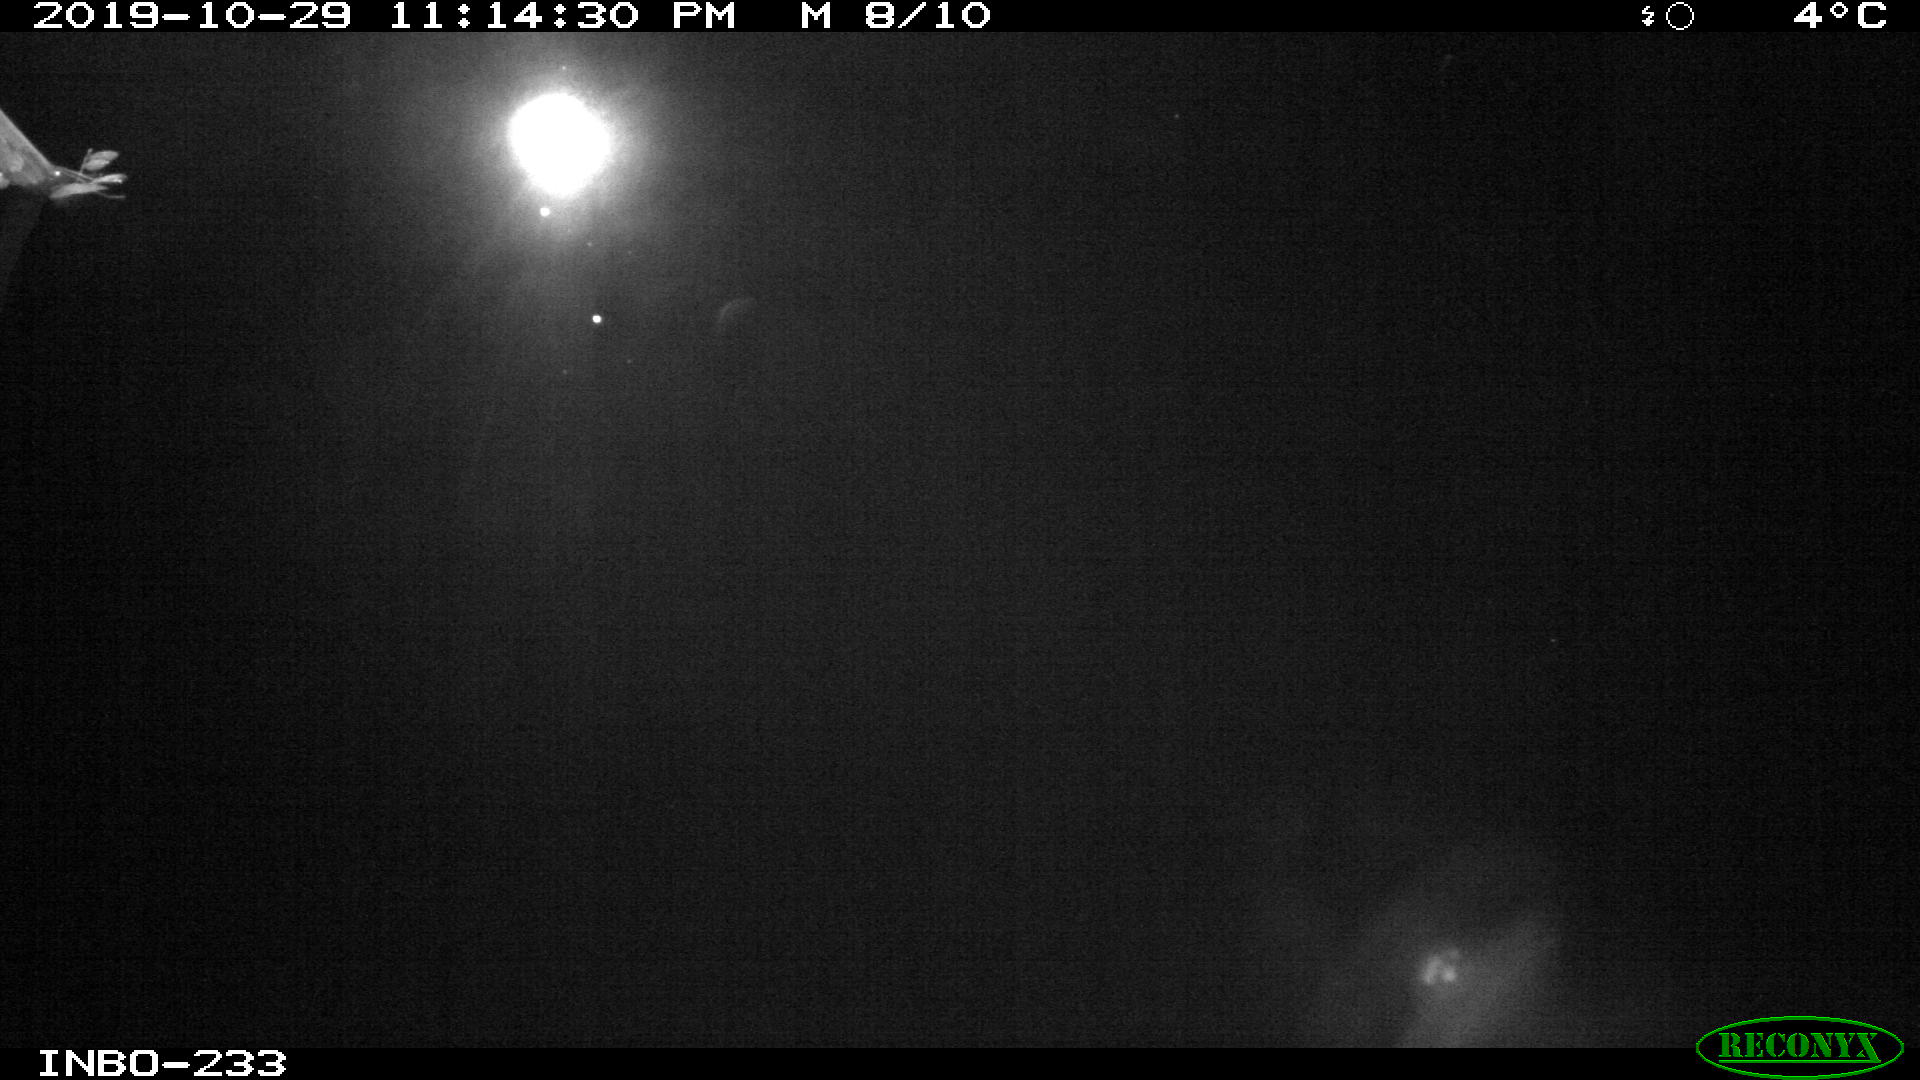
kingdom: Animalia
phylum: Chordata
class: Aves
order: Anseriformes
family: Anatidae
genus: Anas
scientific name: Anas platyrhynchos
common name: Mallard
